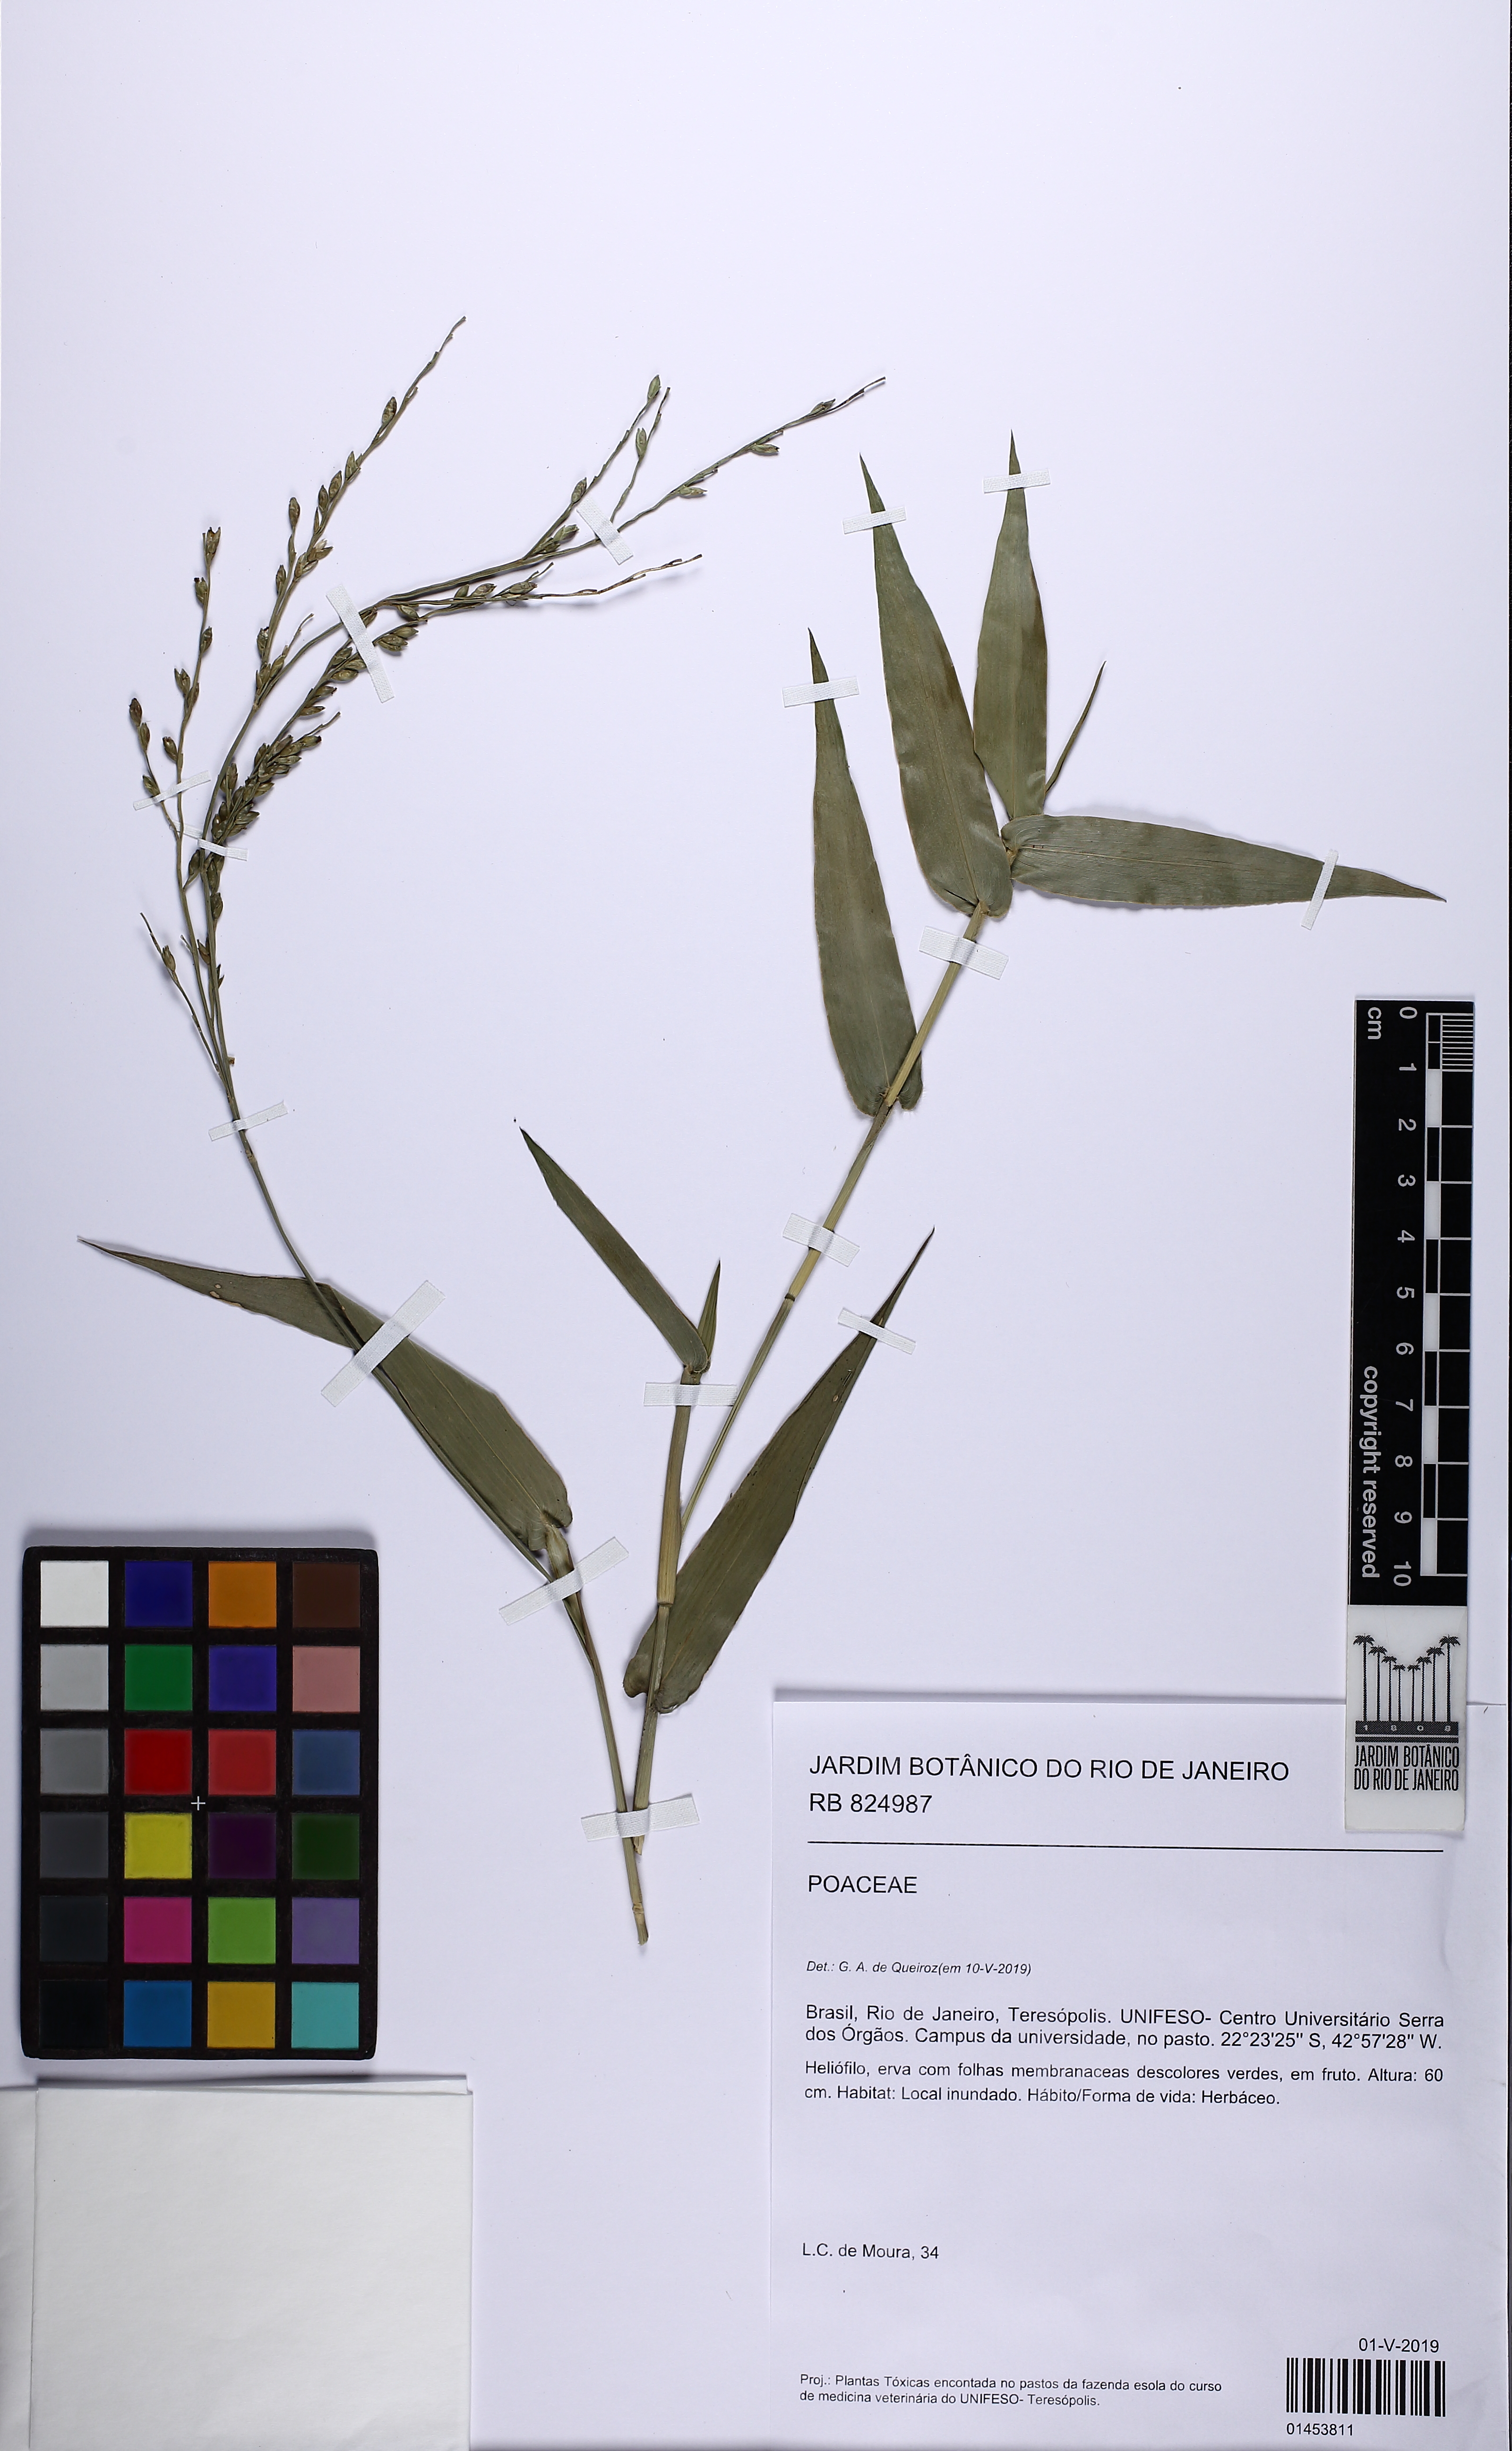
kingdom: Plantae
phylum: Tracheophyta
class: Liliopsida
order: Poales
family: Poaceae
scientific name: Poaceae
